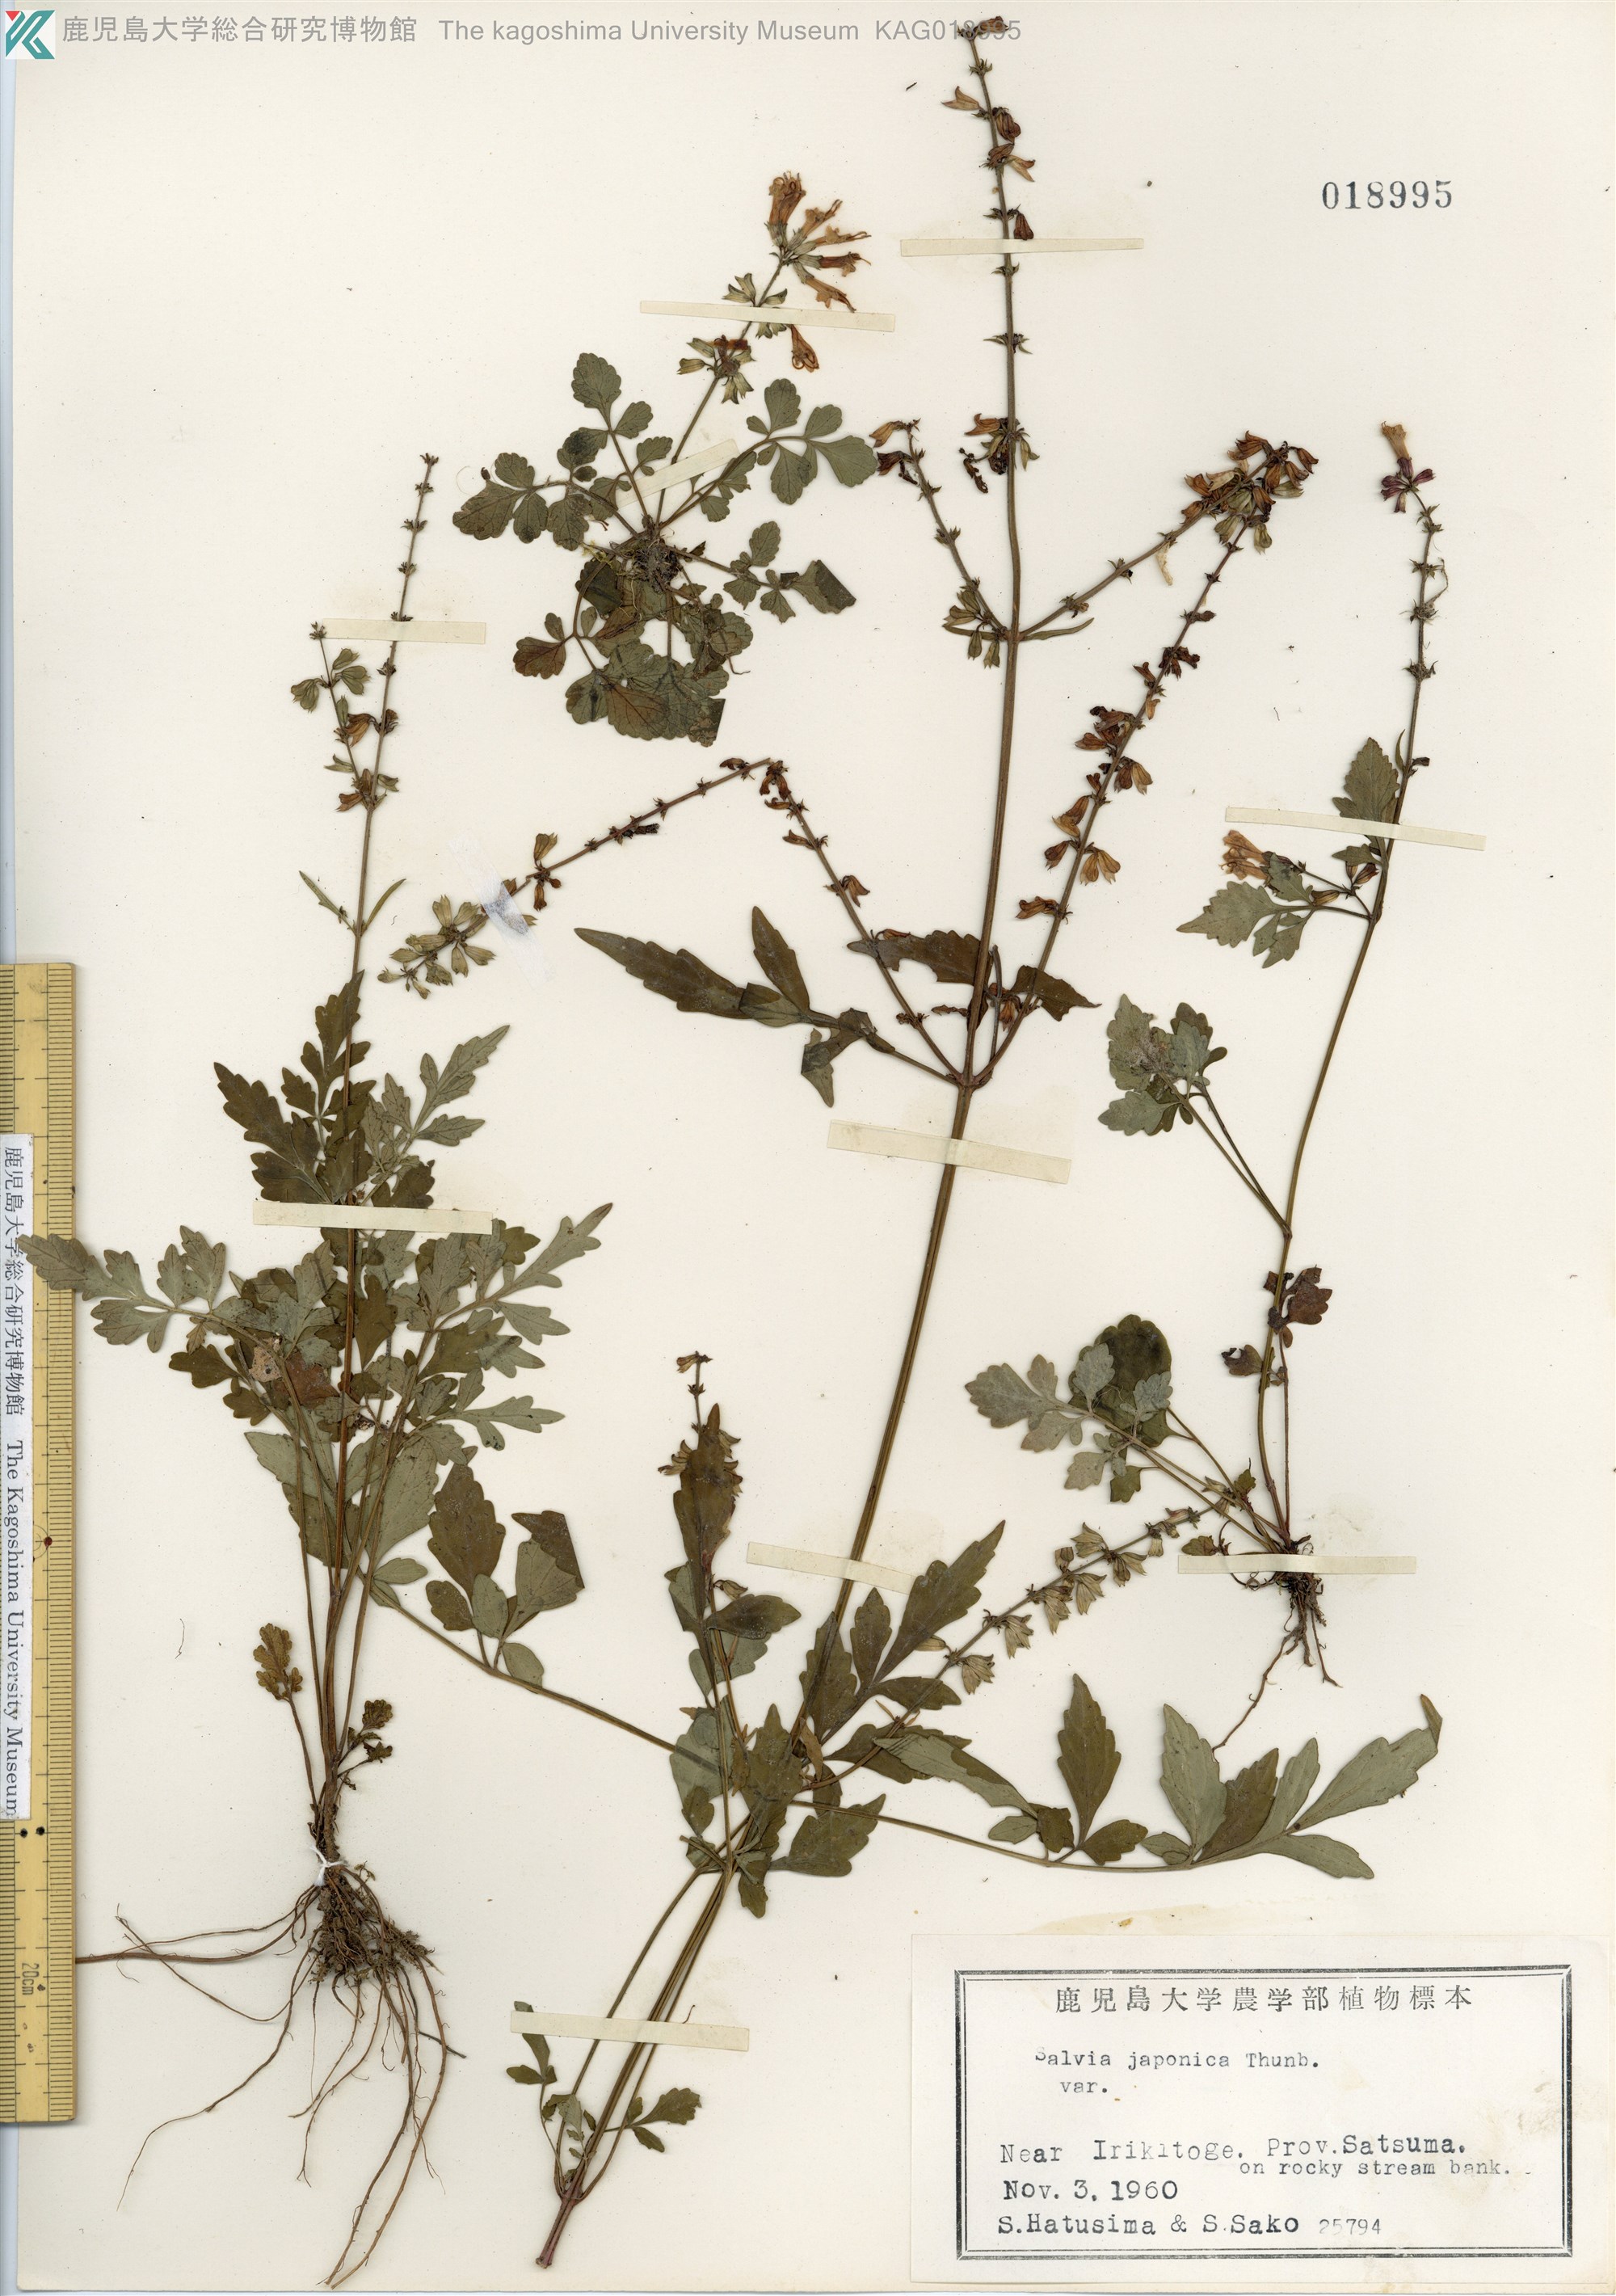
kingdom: Plantae
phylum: Tracheophyta
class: Magnoliopsida
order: Lamiales
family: Lamiaceae
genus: Salvia
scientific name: Salvia japonica
